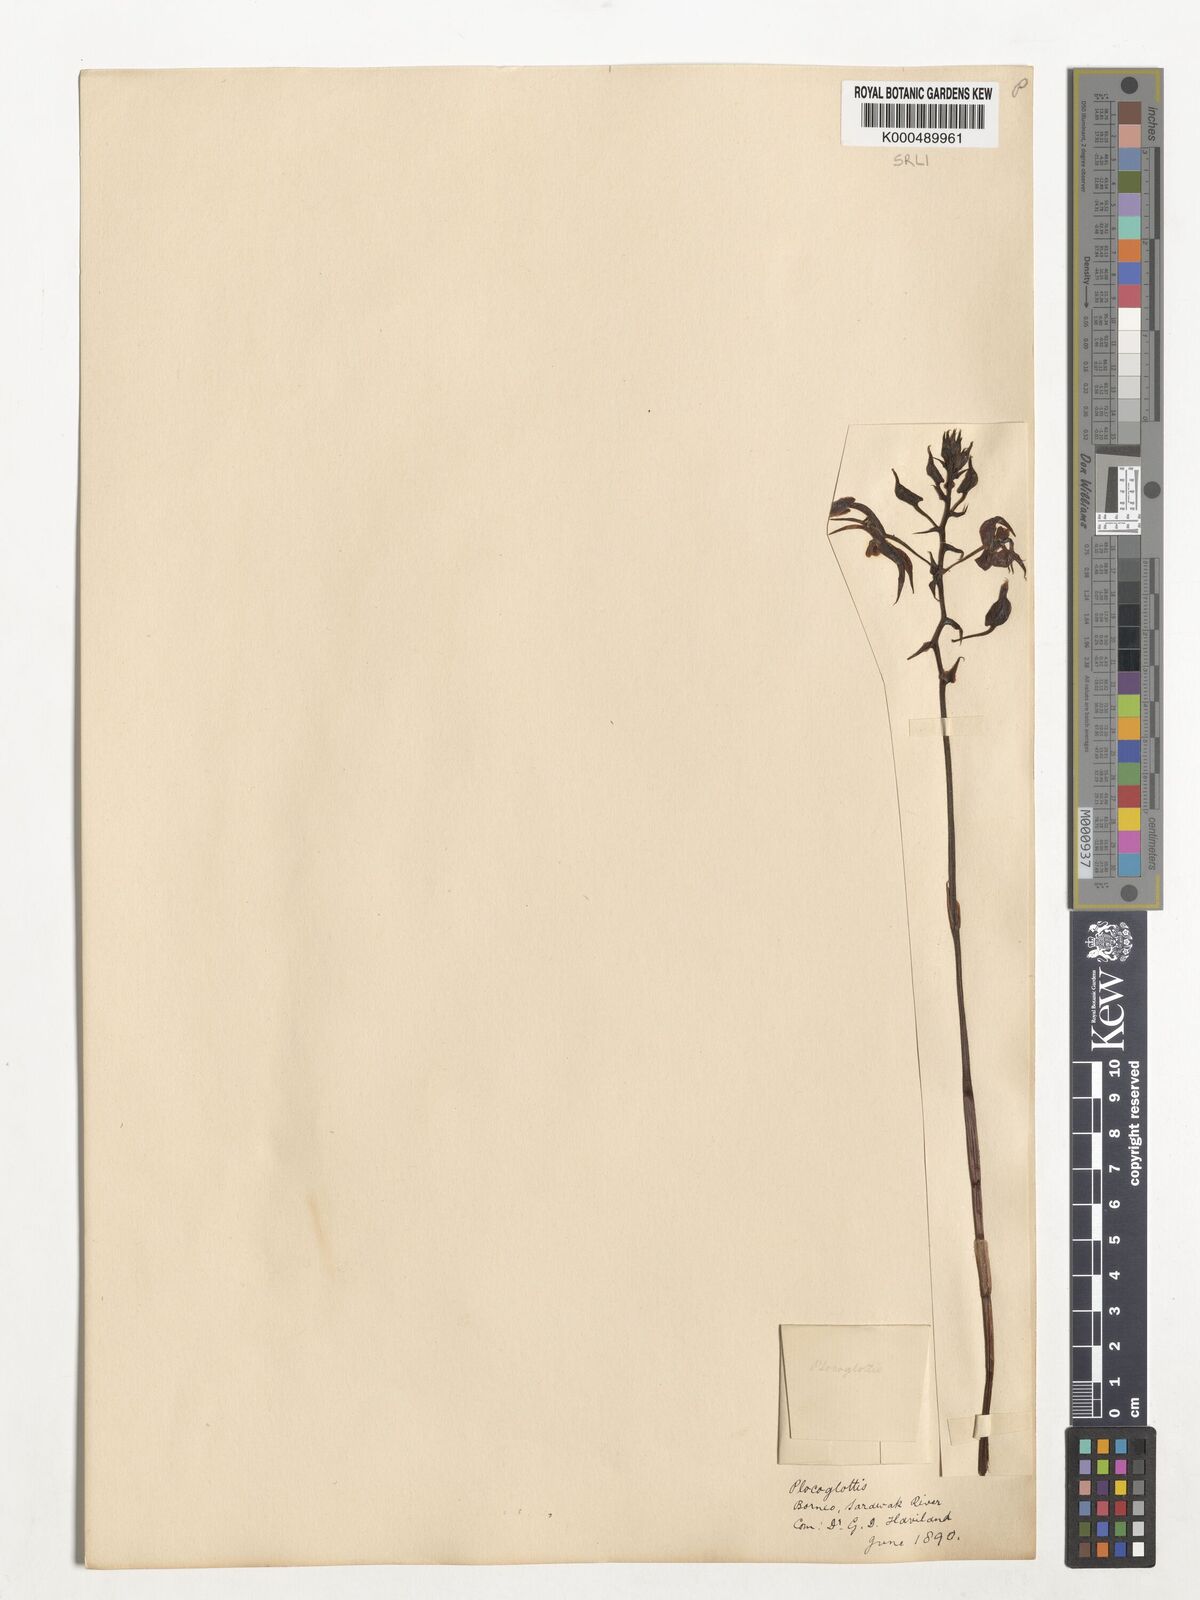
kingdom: Plantae
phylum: Tracheophyta
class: Liliopsida
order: Asparagales
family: Orchidaceae
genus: Plocoglottis
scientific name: Plocoglottis borneensis
